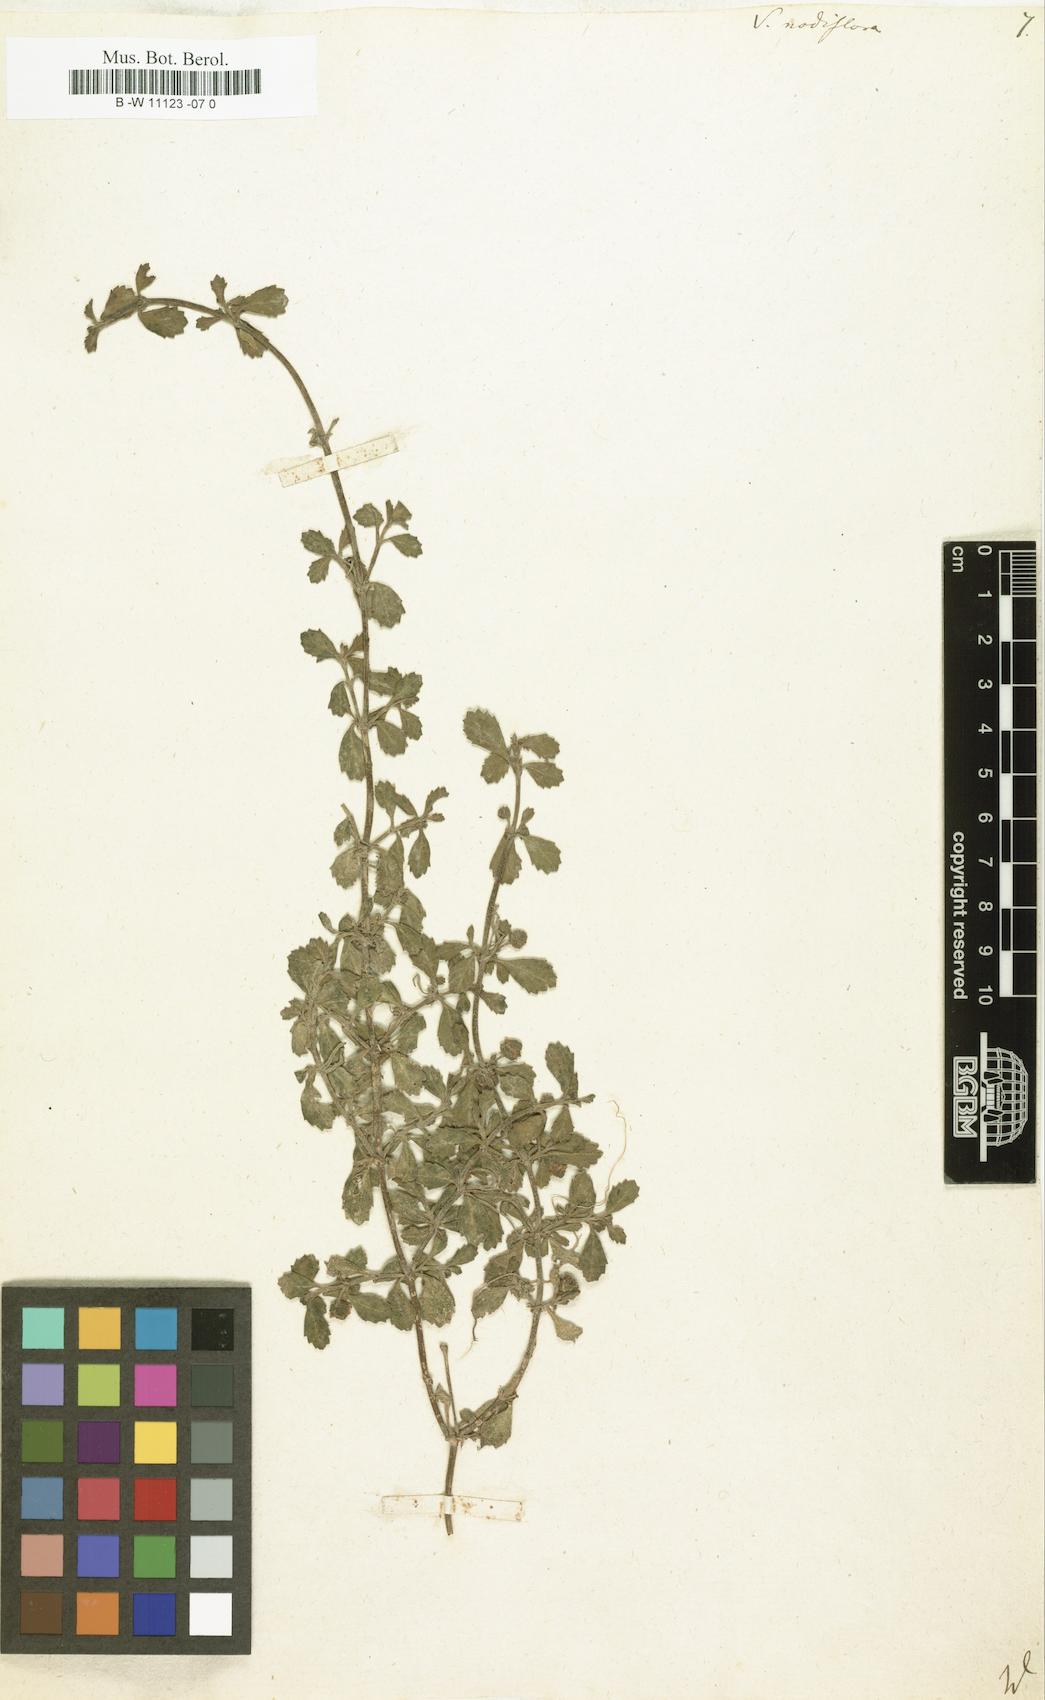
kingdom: Plantae
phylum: Tracheophyta
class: Magnoliopsida
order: Lamiales
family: Verbenaceae
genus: Verbena
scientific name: Verbena nodiflora
